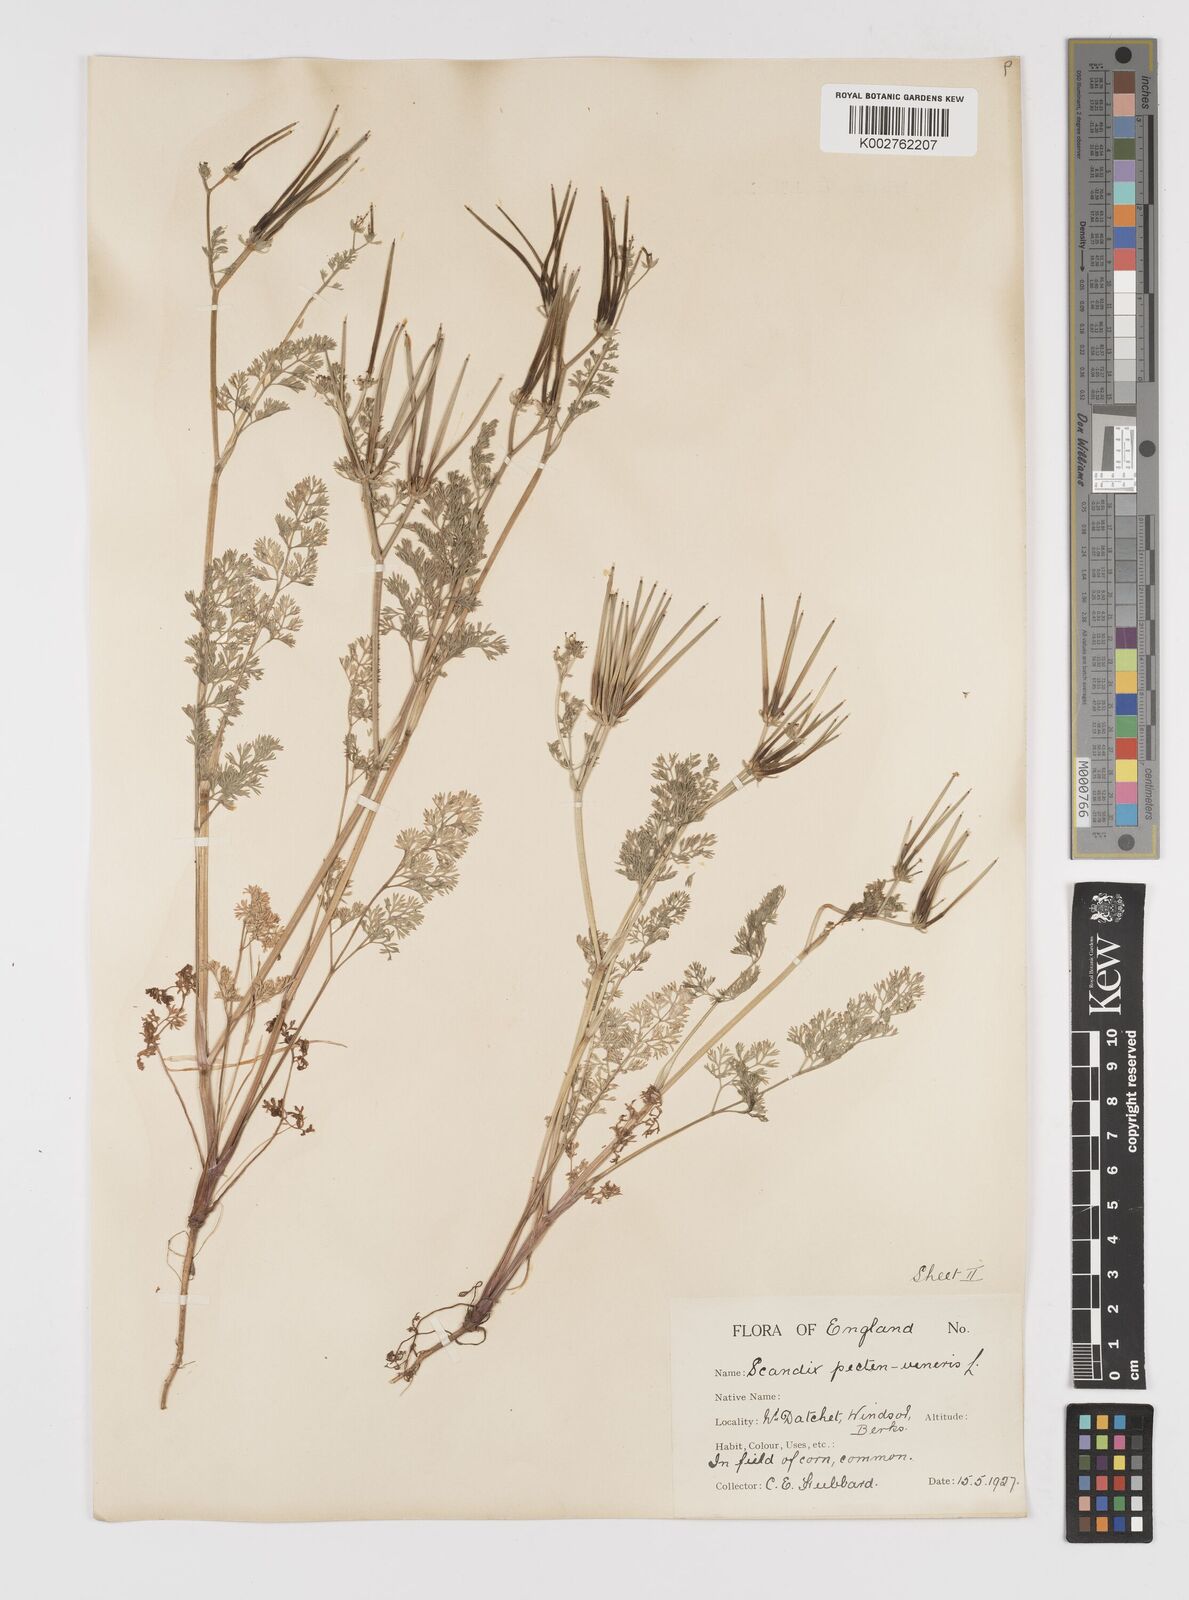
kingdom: Plantae
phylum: Tracheophyta
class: Magnoliopsida
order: Apiales
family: Apiaceae
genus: Scandix
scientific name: Scandix pecten-veneris
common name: Shepherd's-needle
